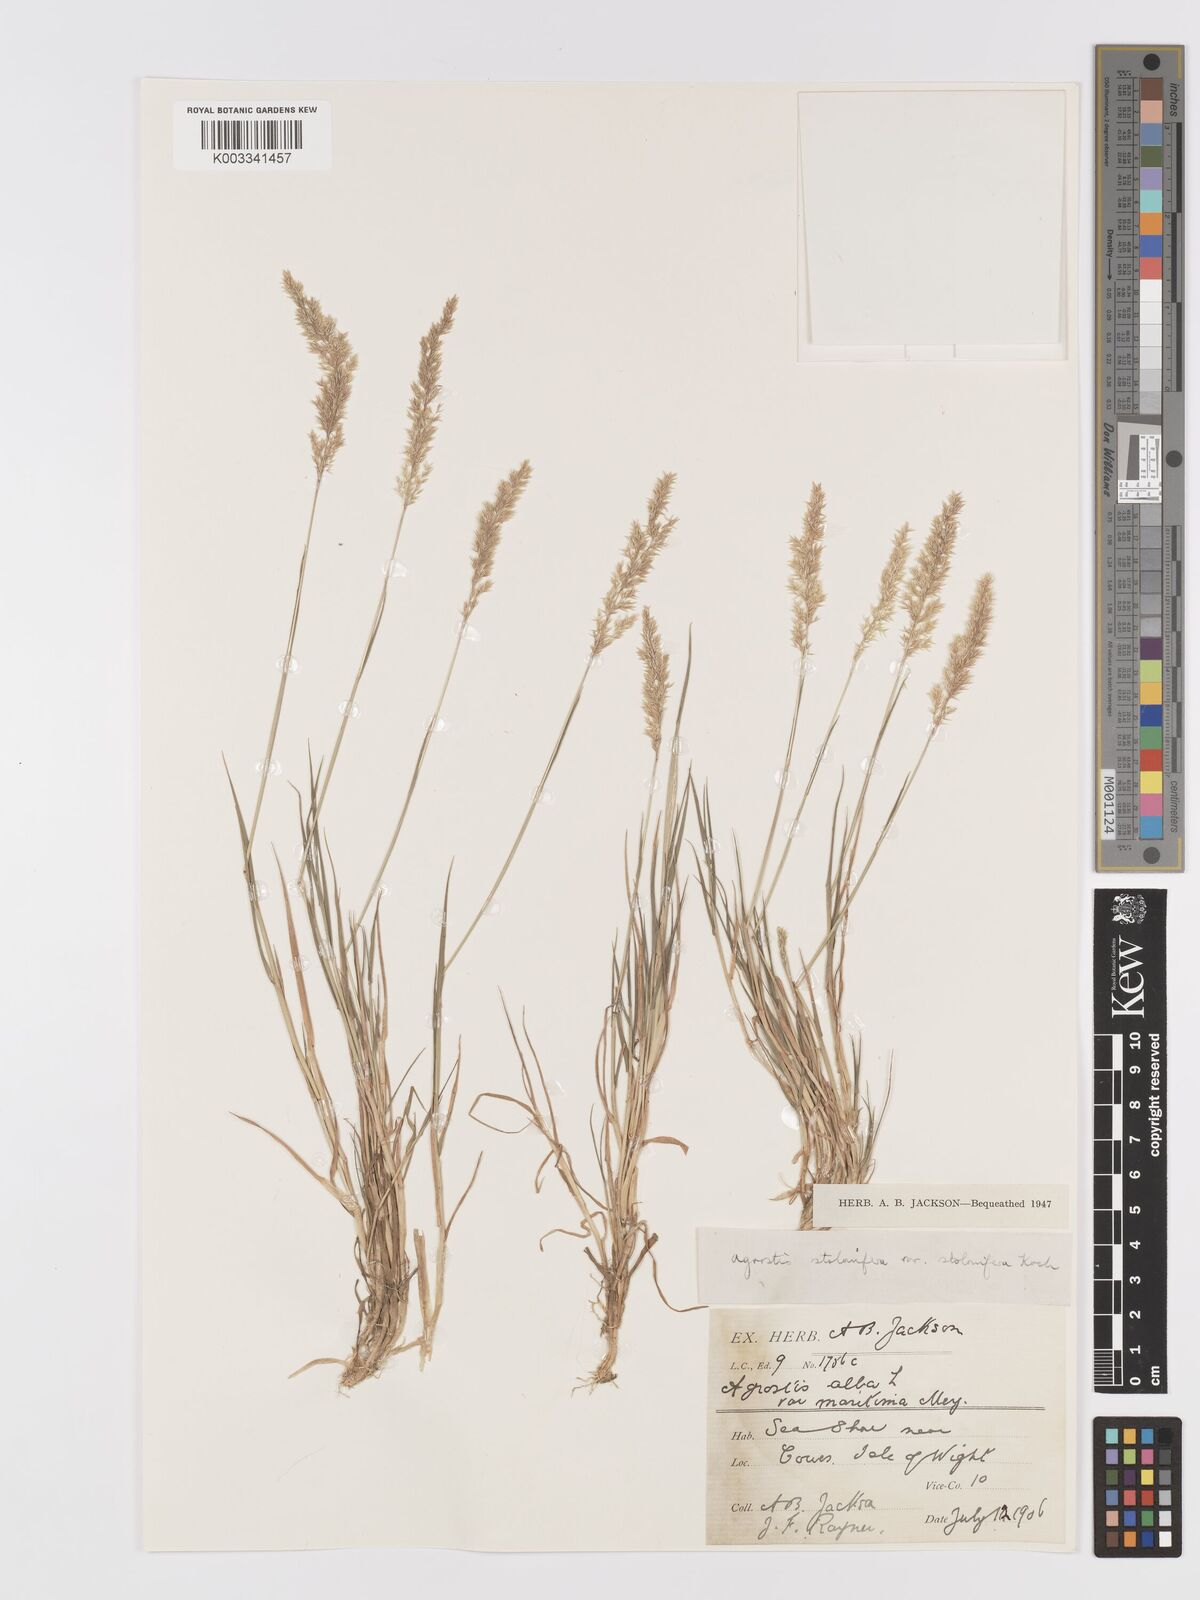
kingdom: Plantae
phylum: Tracheophyta
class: Liliopsida
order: Poales
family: Poaceae
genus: Agrostis
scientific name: Agrostis stolonifera
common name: Creeping bentgrass
